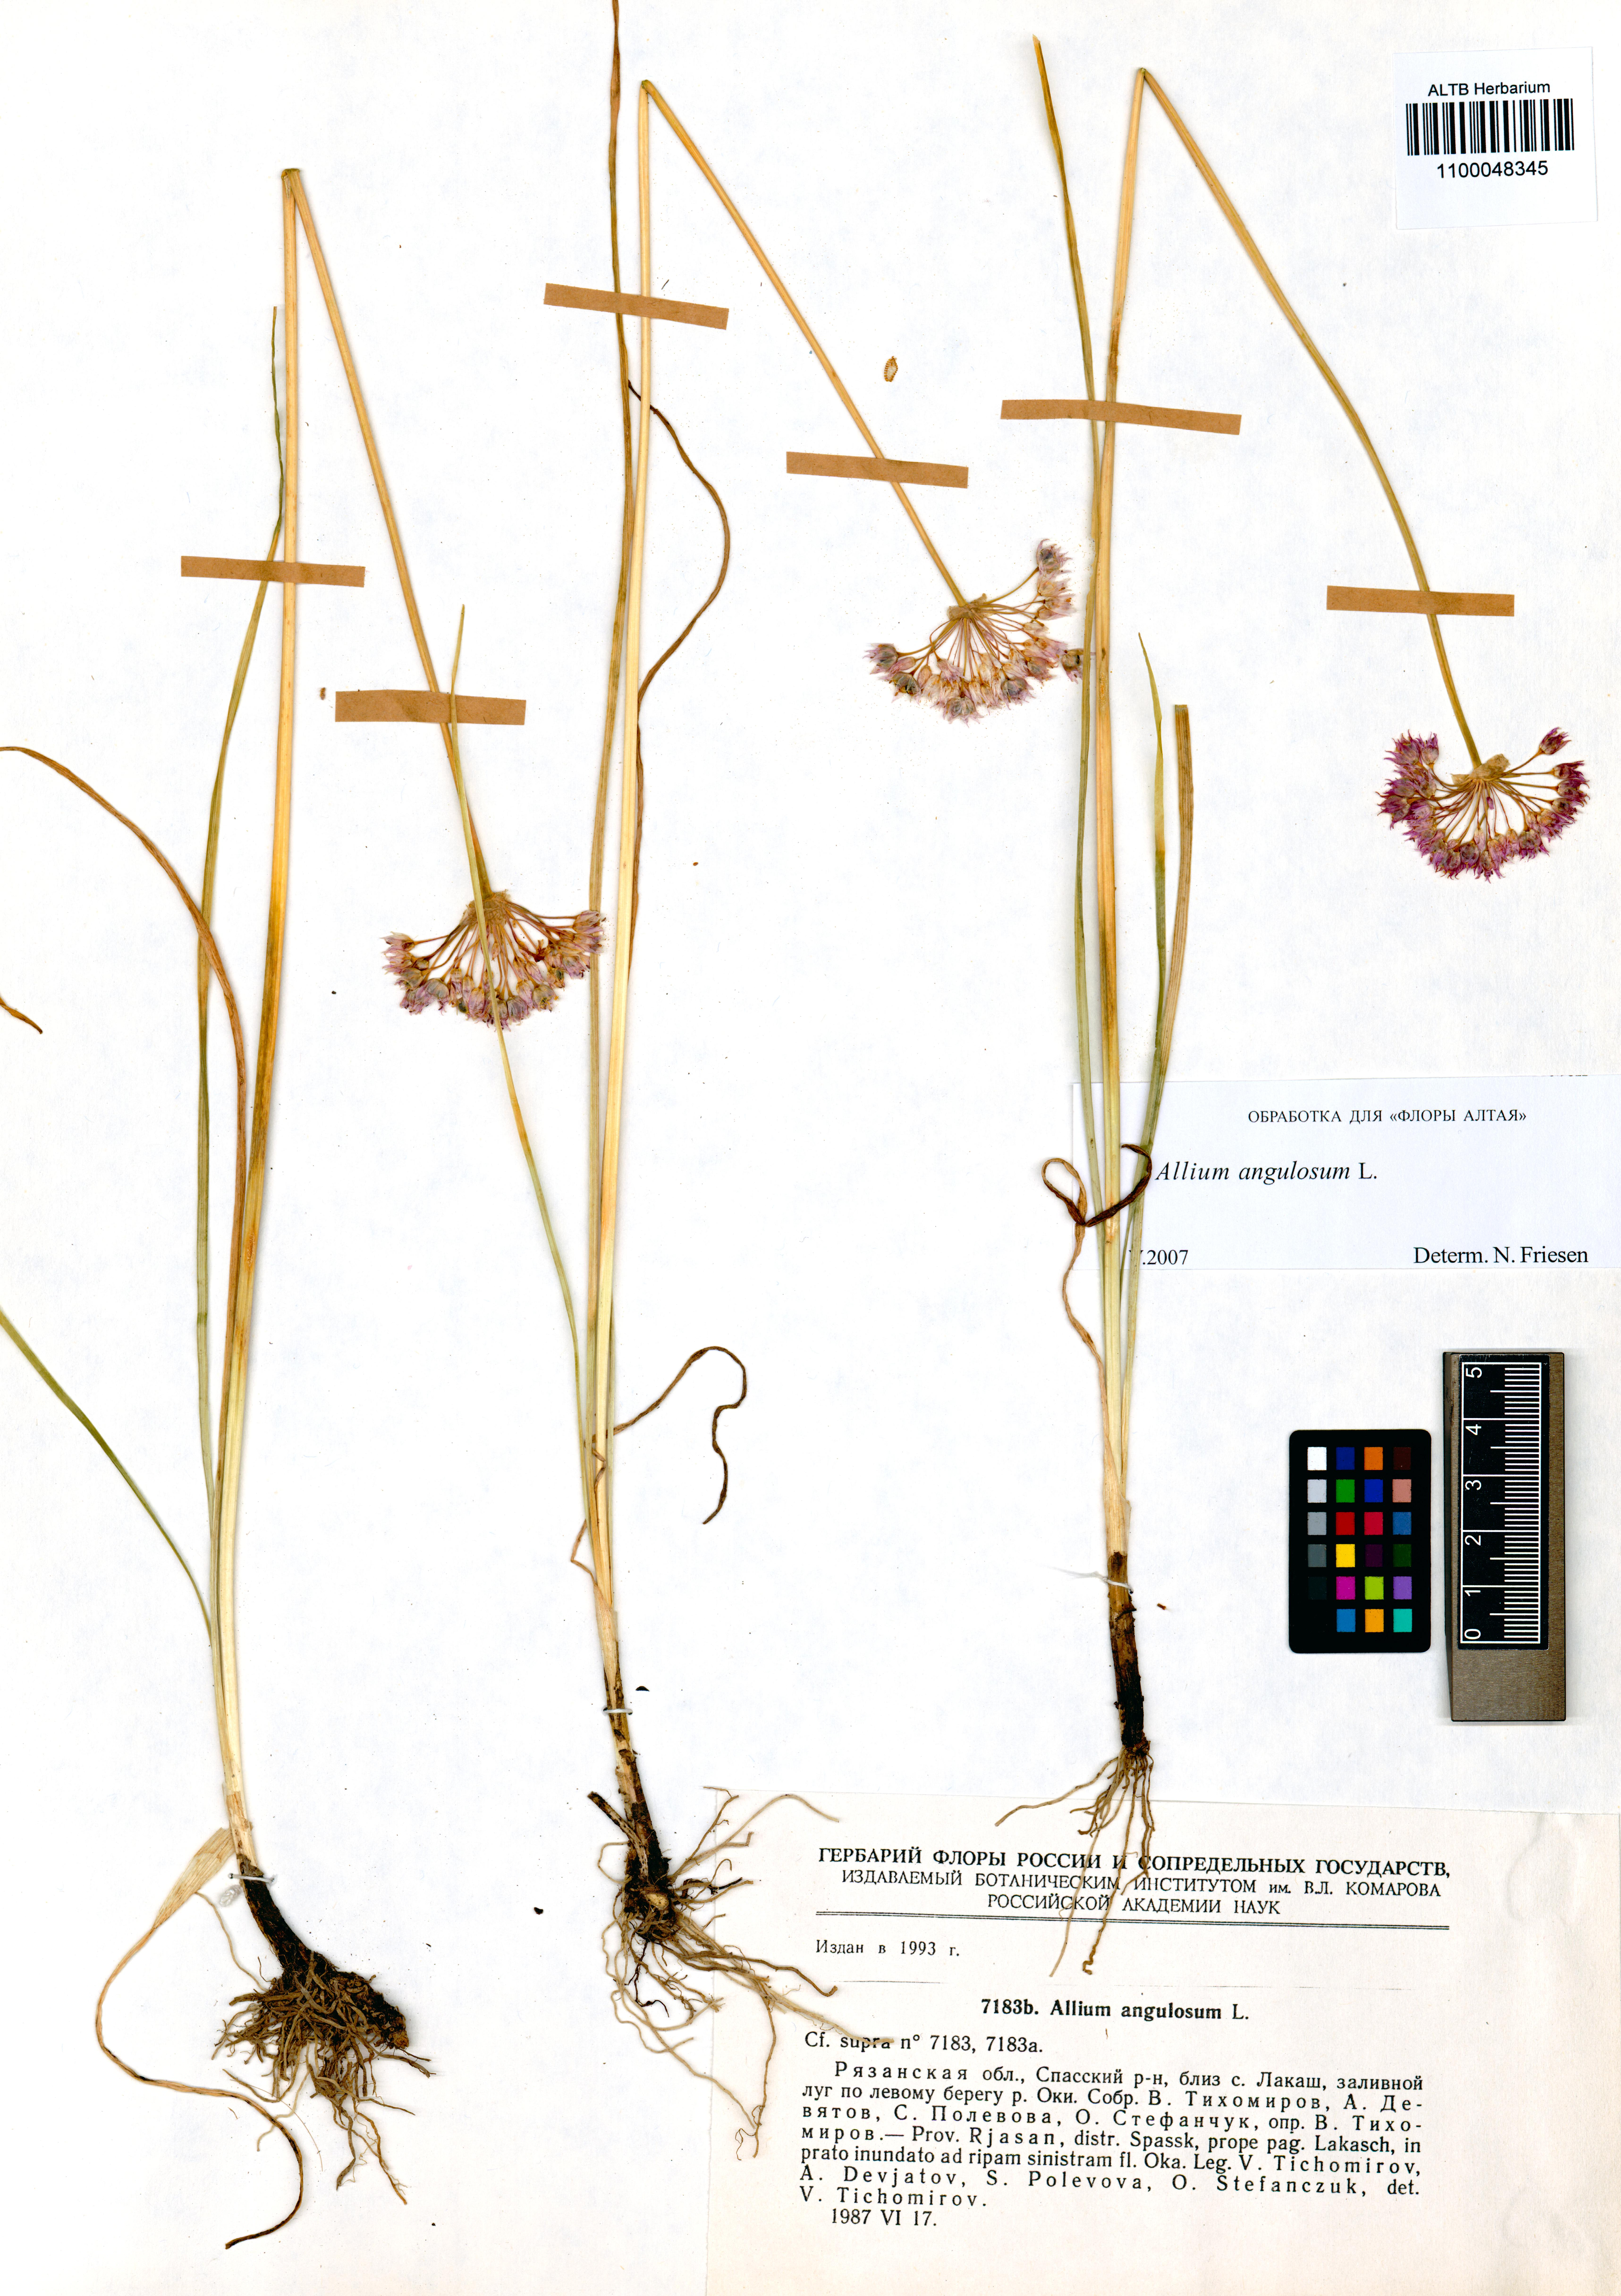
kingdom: Plantae
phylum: Tracheophyta
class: Liliopsida
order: Asparagales
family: Amaryllidaceae
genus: Allium
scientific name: Allium angulosum
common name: Mouse garlic
